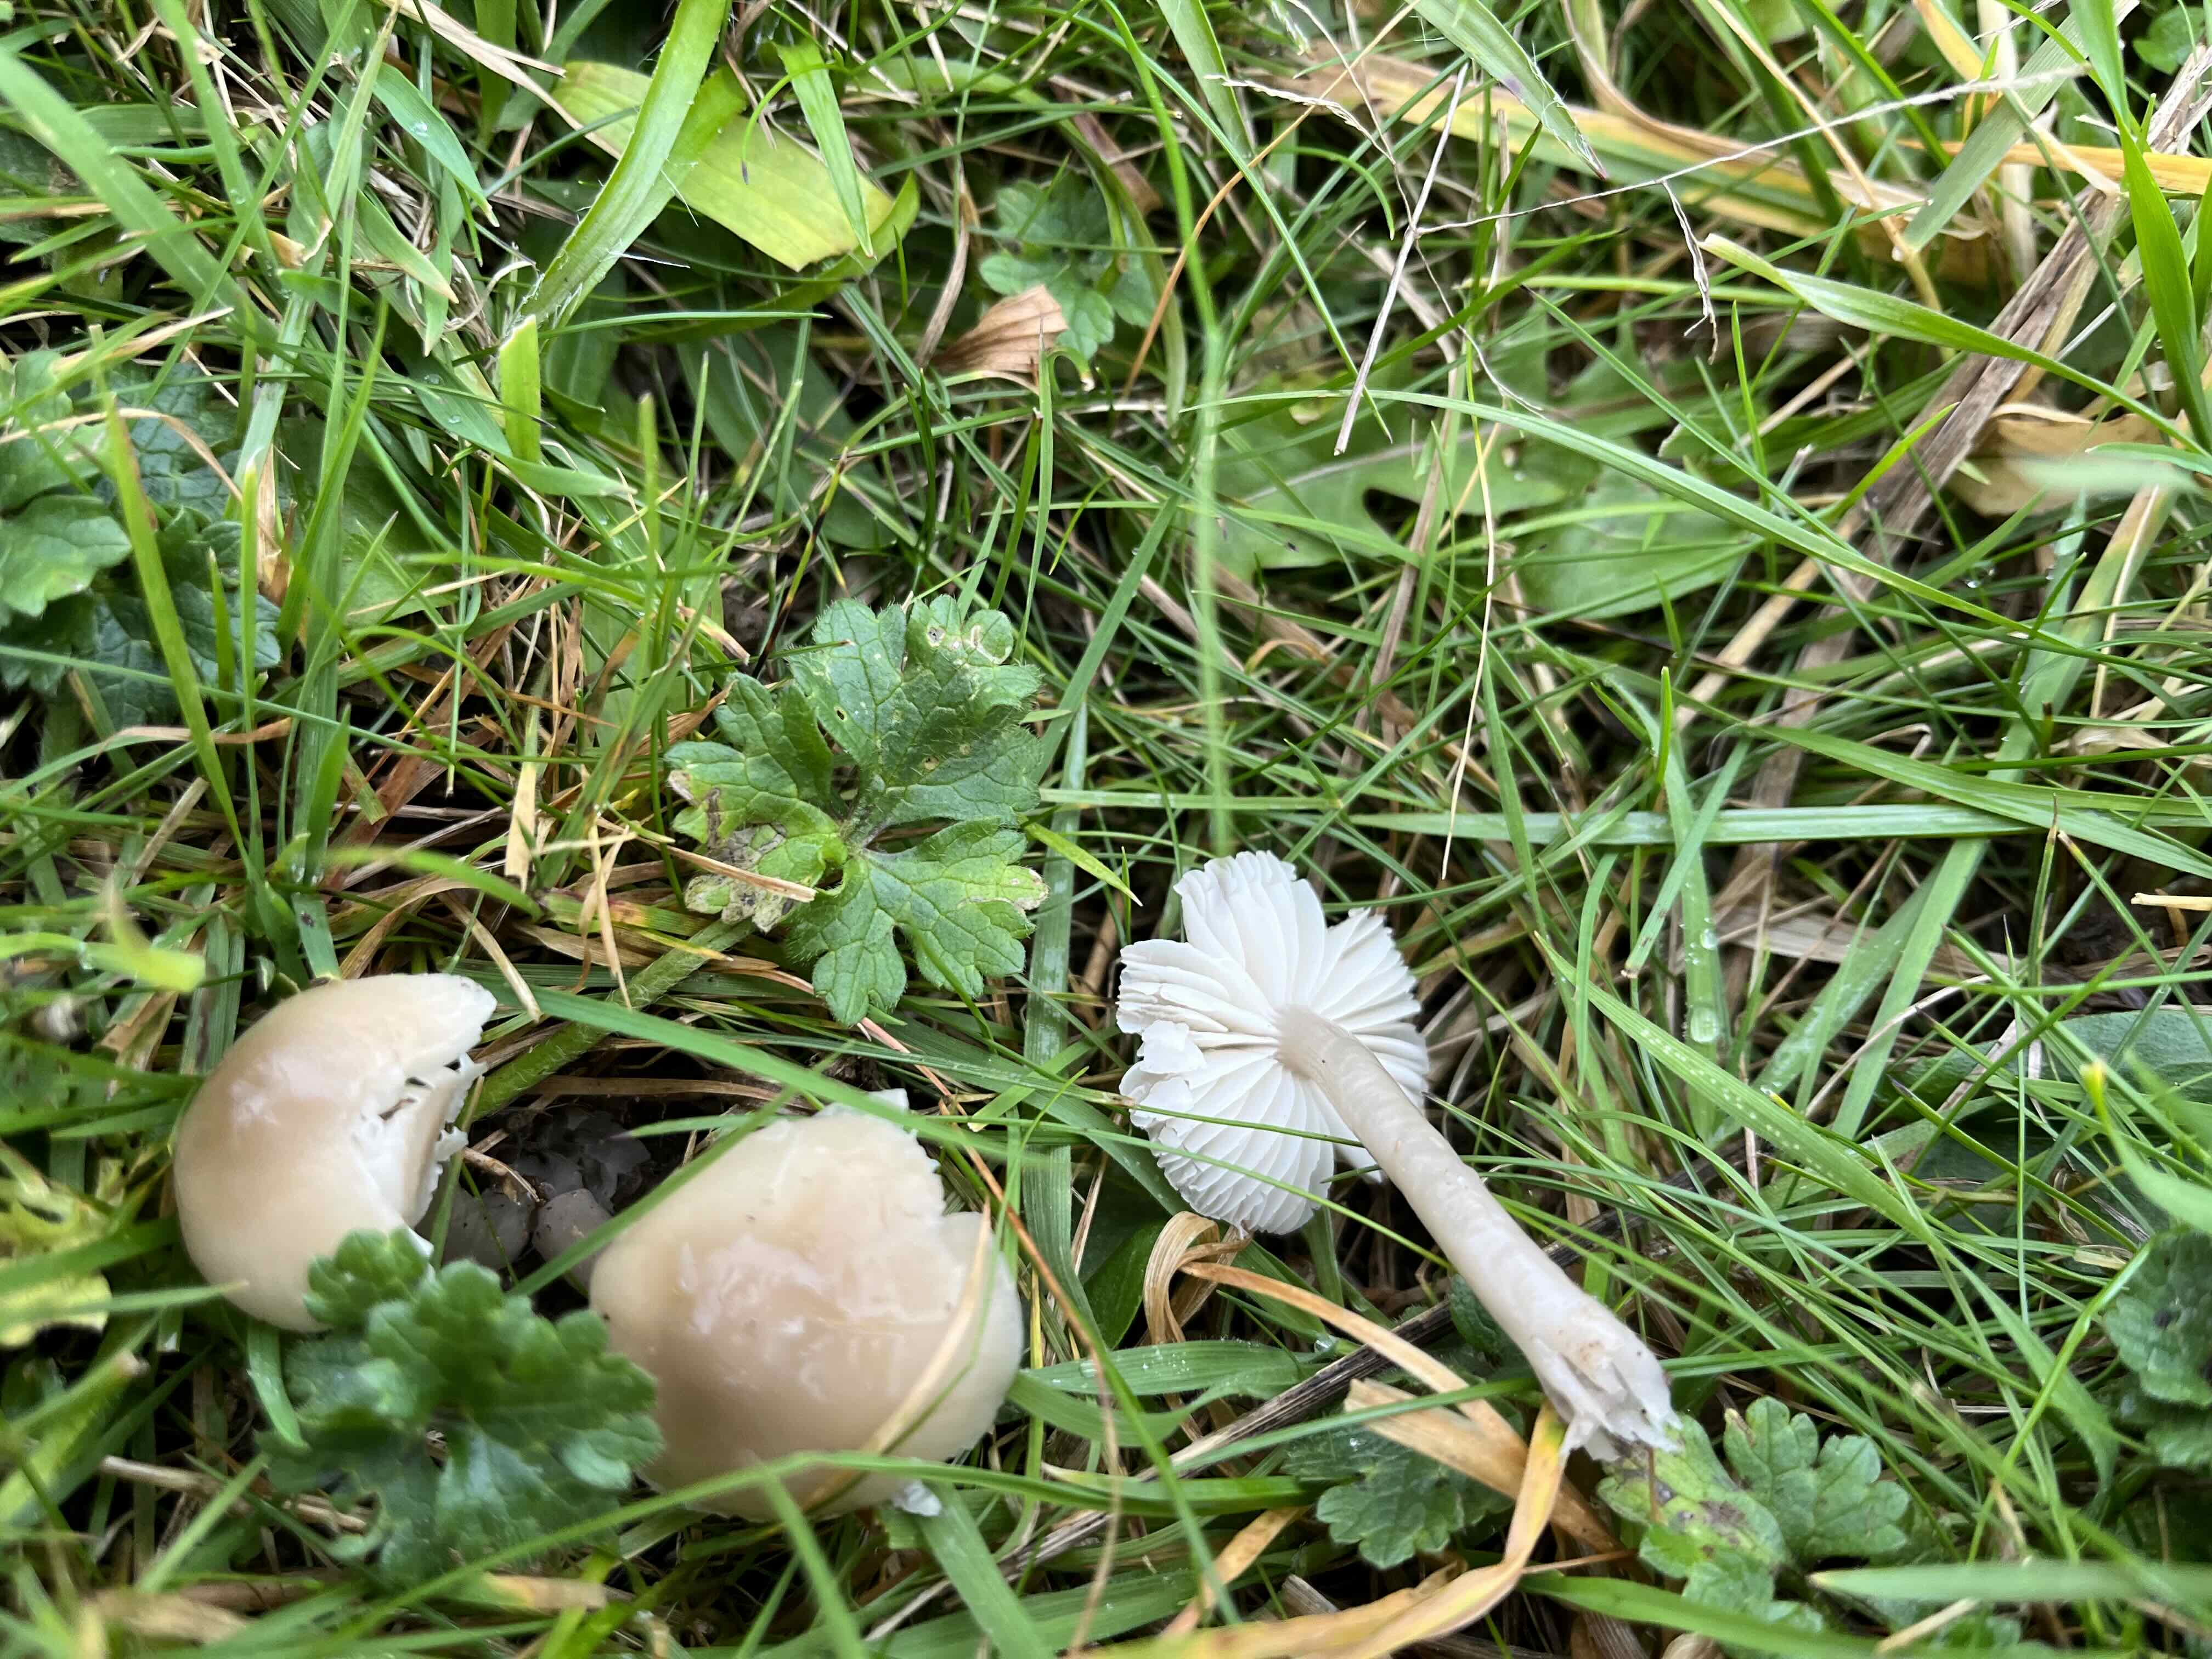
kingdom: Fungi
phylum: Basidiomycota
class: Agaricomycetes
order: Agaricales
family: Hygrophoraceae
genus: Gliophorus
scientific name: Gliophorus irrigatus
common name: slimet vokshat
